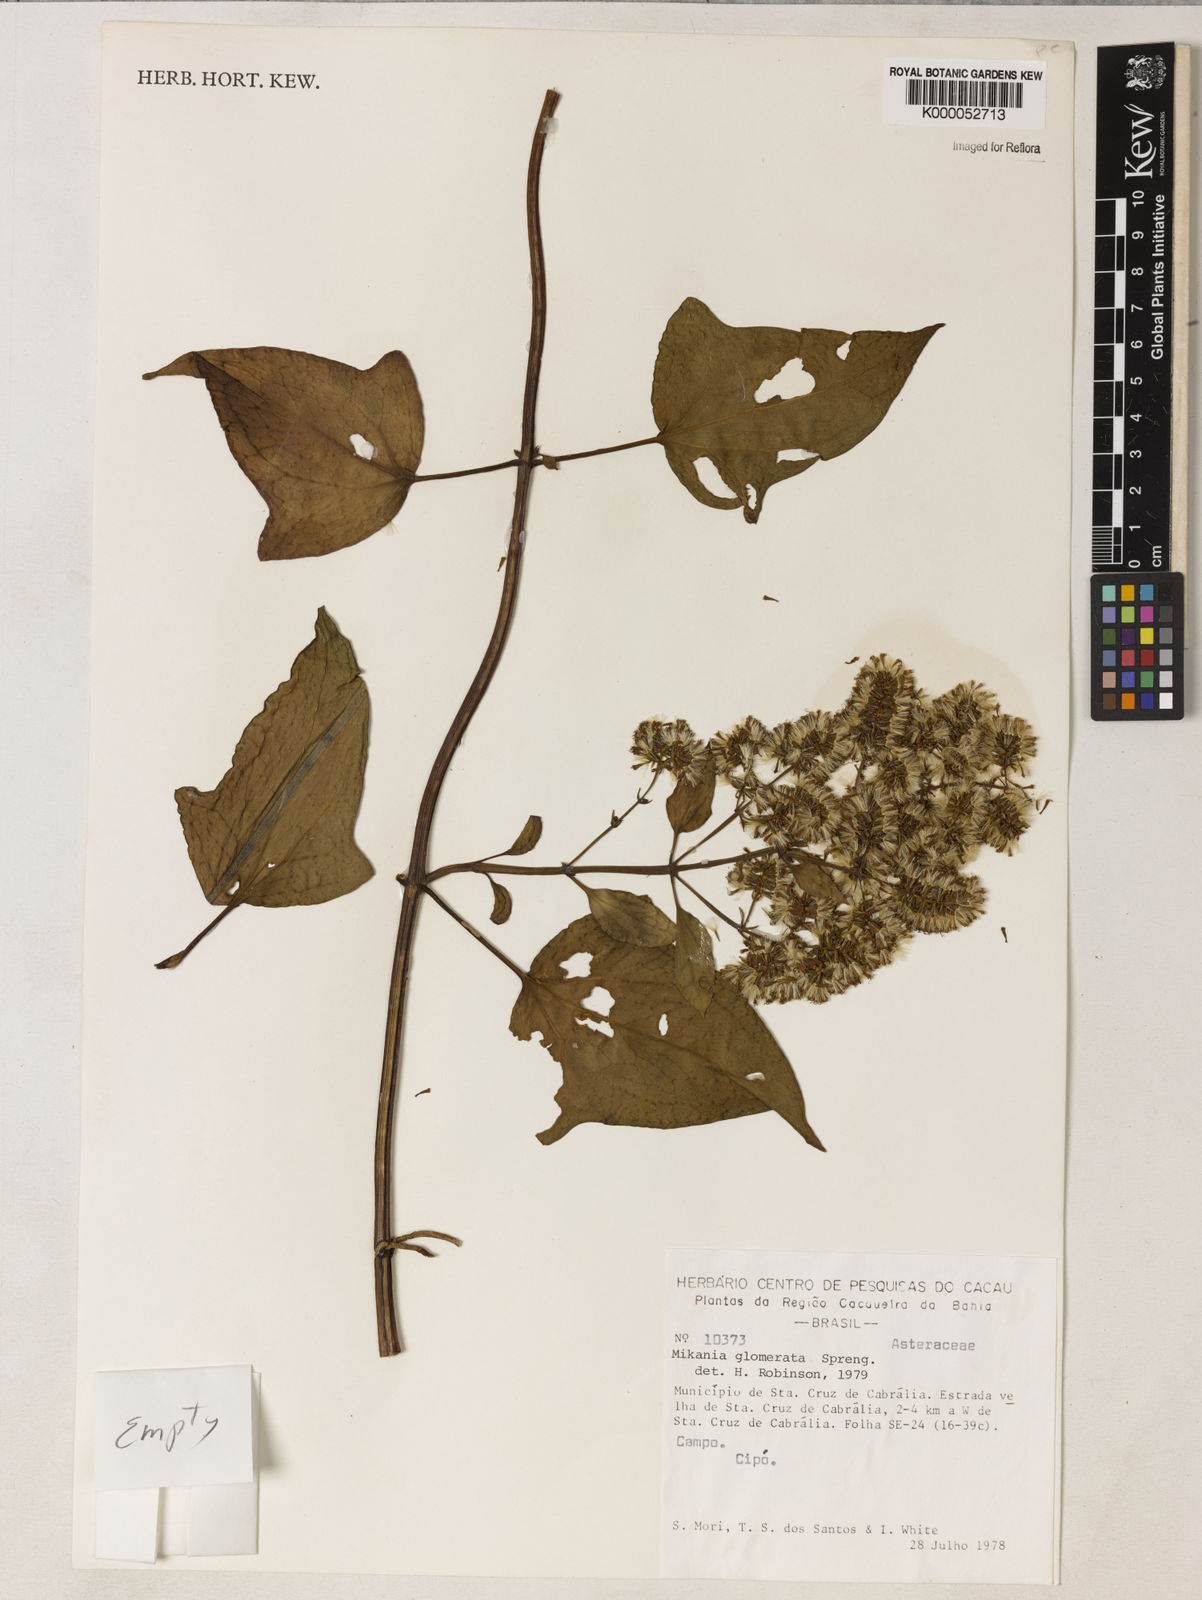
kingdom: Plantae
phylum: Tracheophyta
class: Magnoliopsida
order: Asterales
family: Asteraceae
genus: Mikania
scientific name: Mikania glomerata
